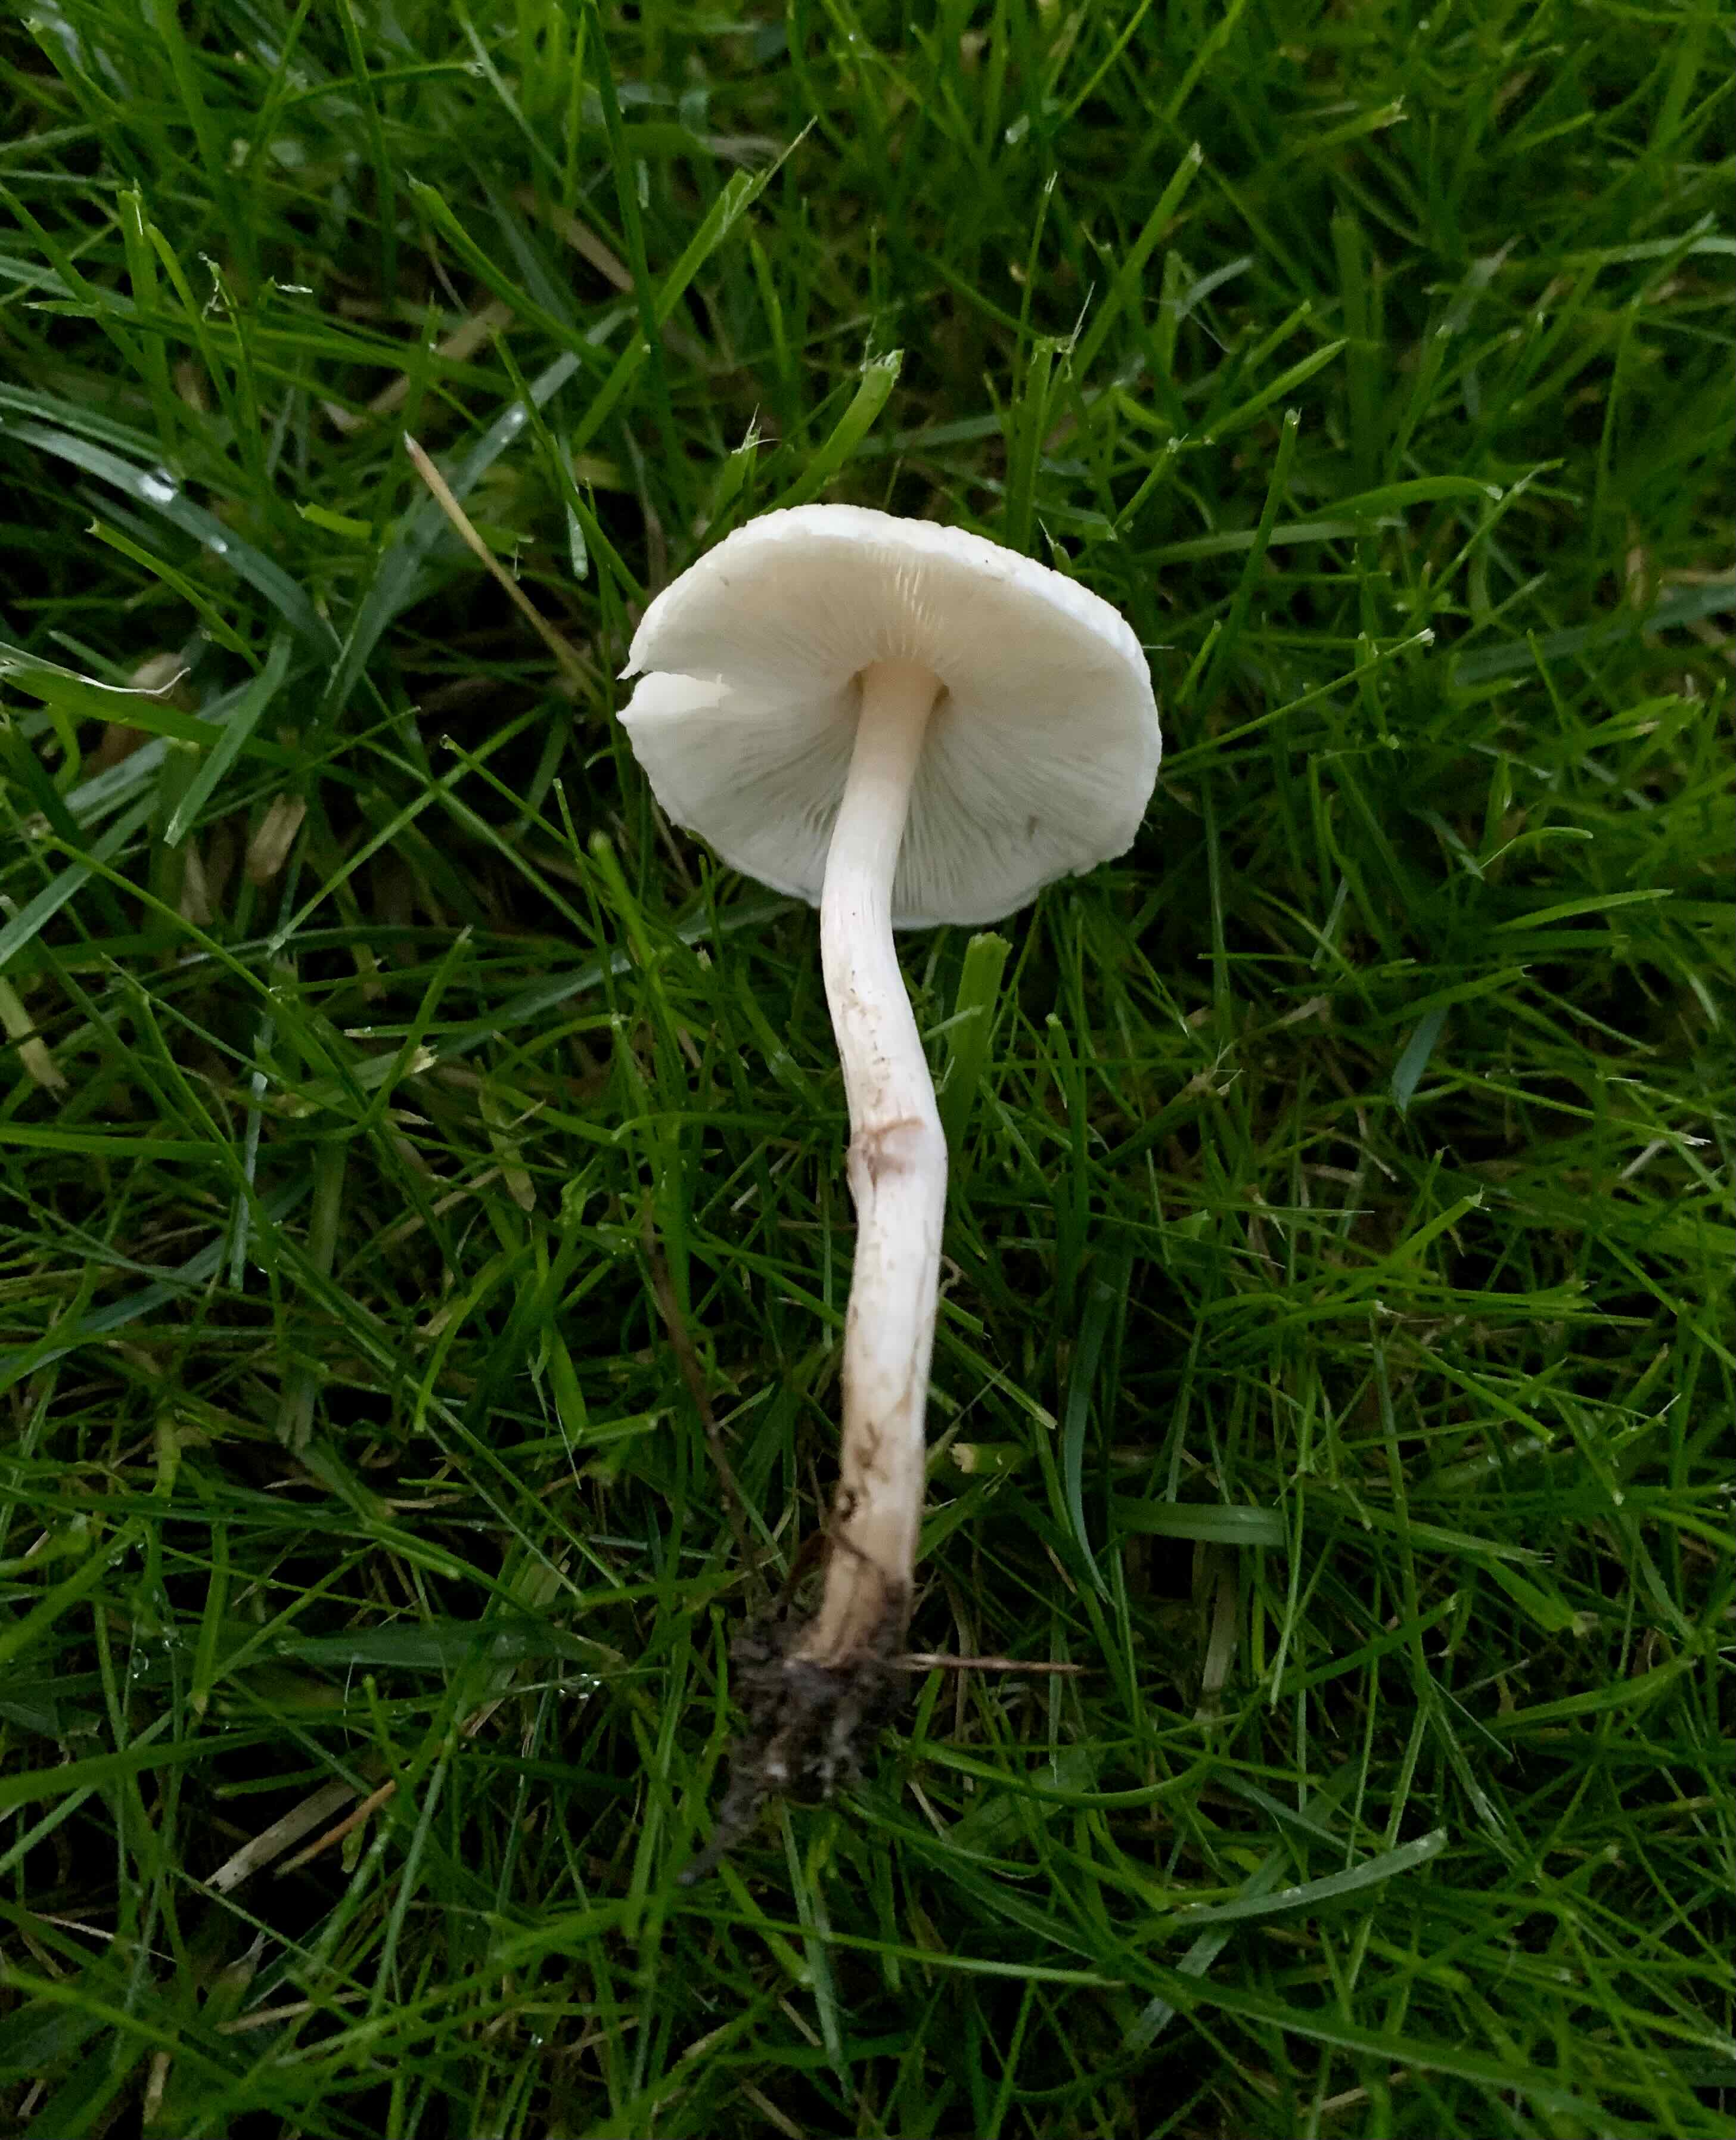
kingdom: Fungi
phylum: Basidiomycota
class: Agaricomycetes
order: Agaricales
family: Agaricaceae
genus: Lepiota
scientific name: Lepiota cristata
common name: stinkende parasolhat
